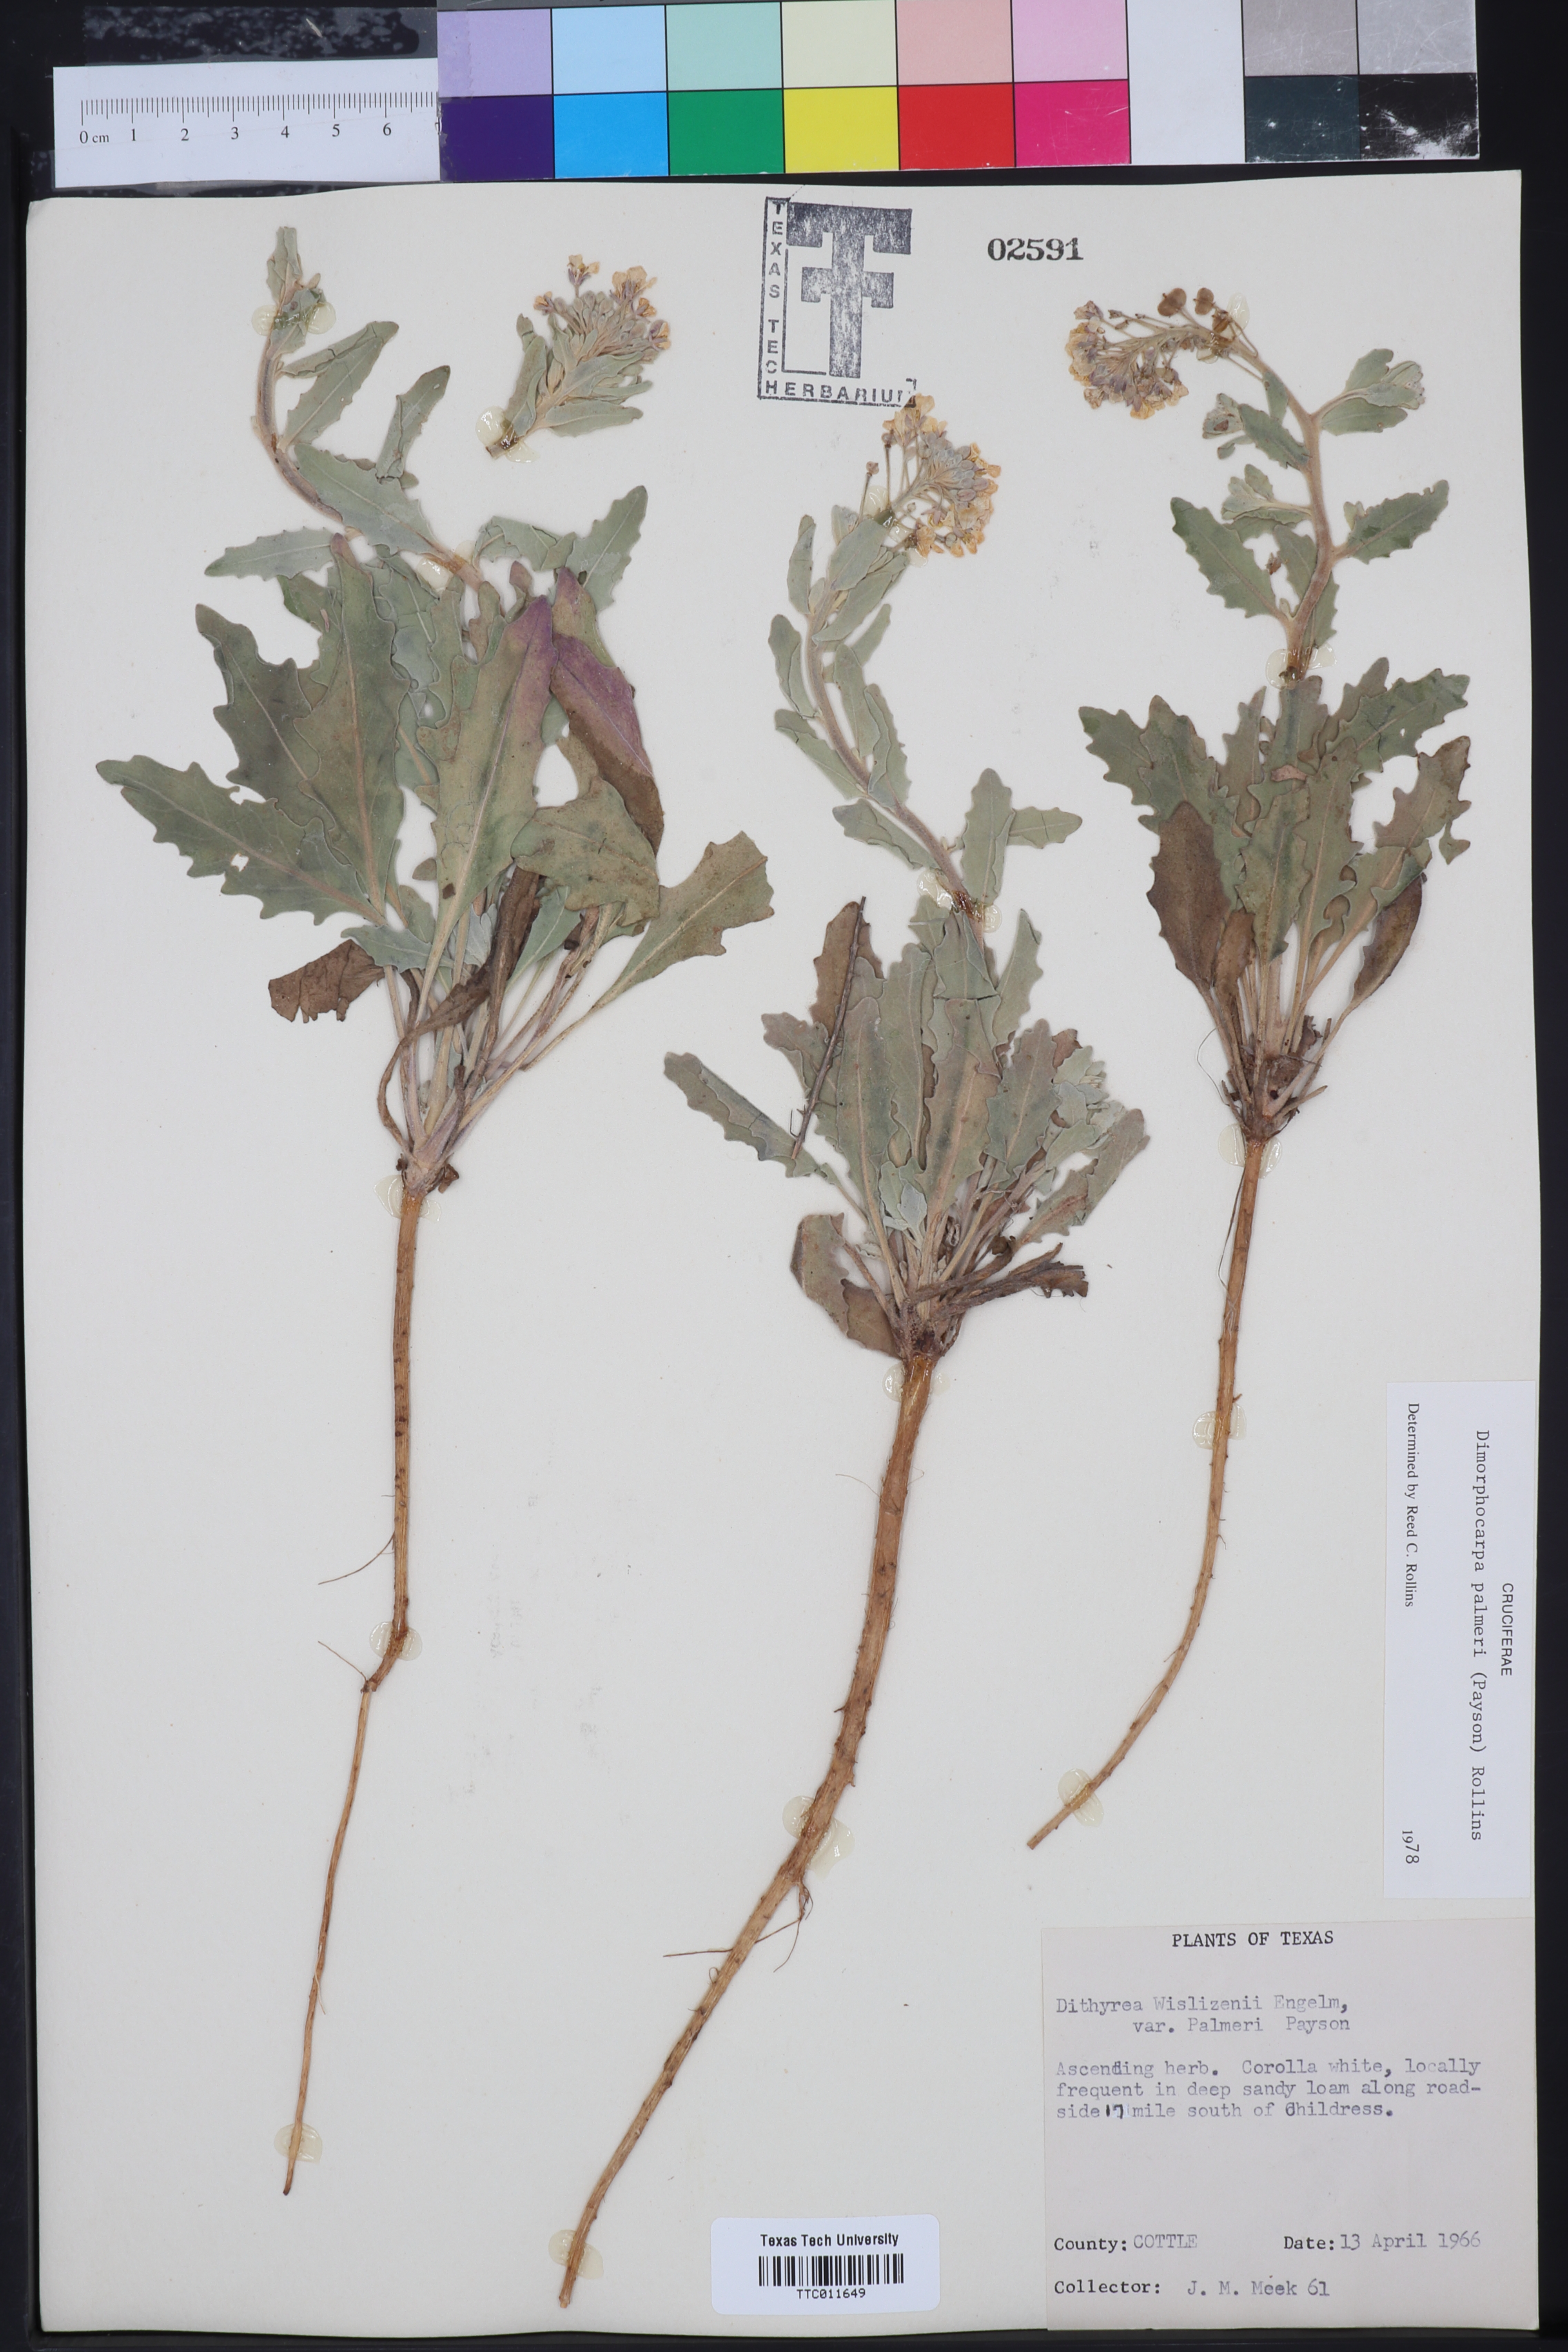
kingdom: Plantae
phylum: Tracheophyta
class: Magnoliopsida
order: Brassicales
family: Brassicaceae
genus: Dimorphocarpa
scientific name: Dimorphocarpa candicans
